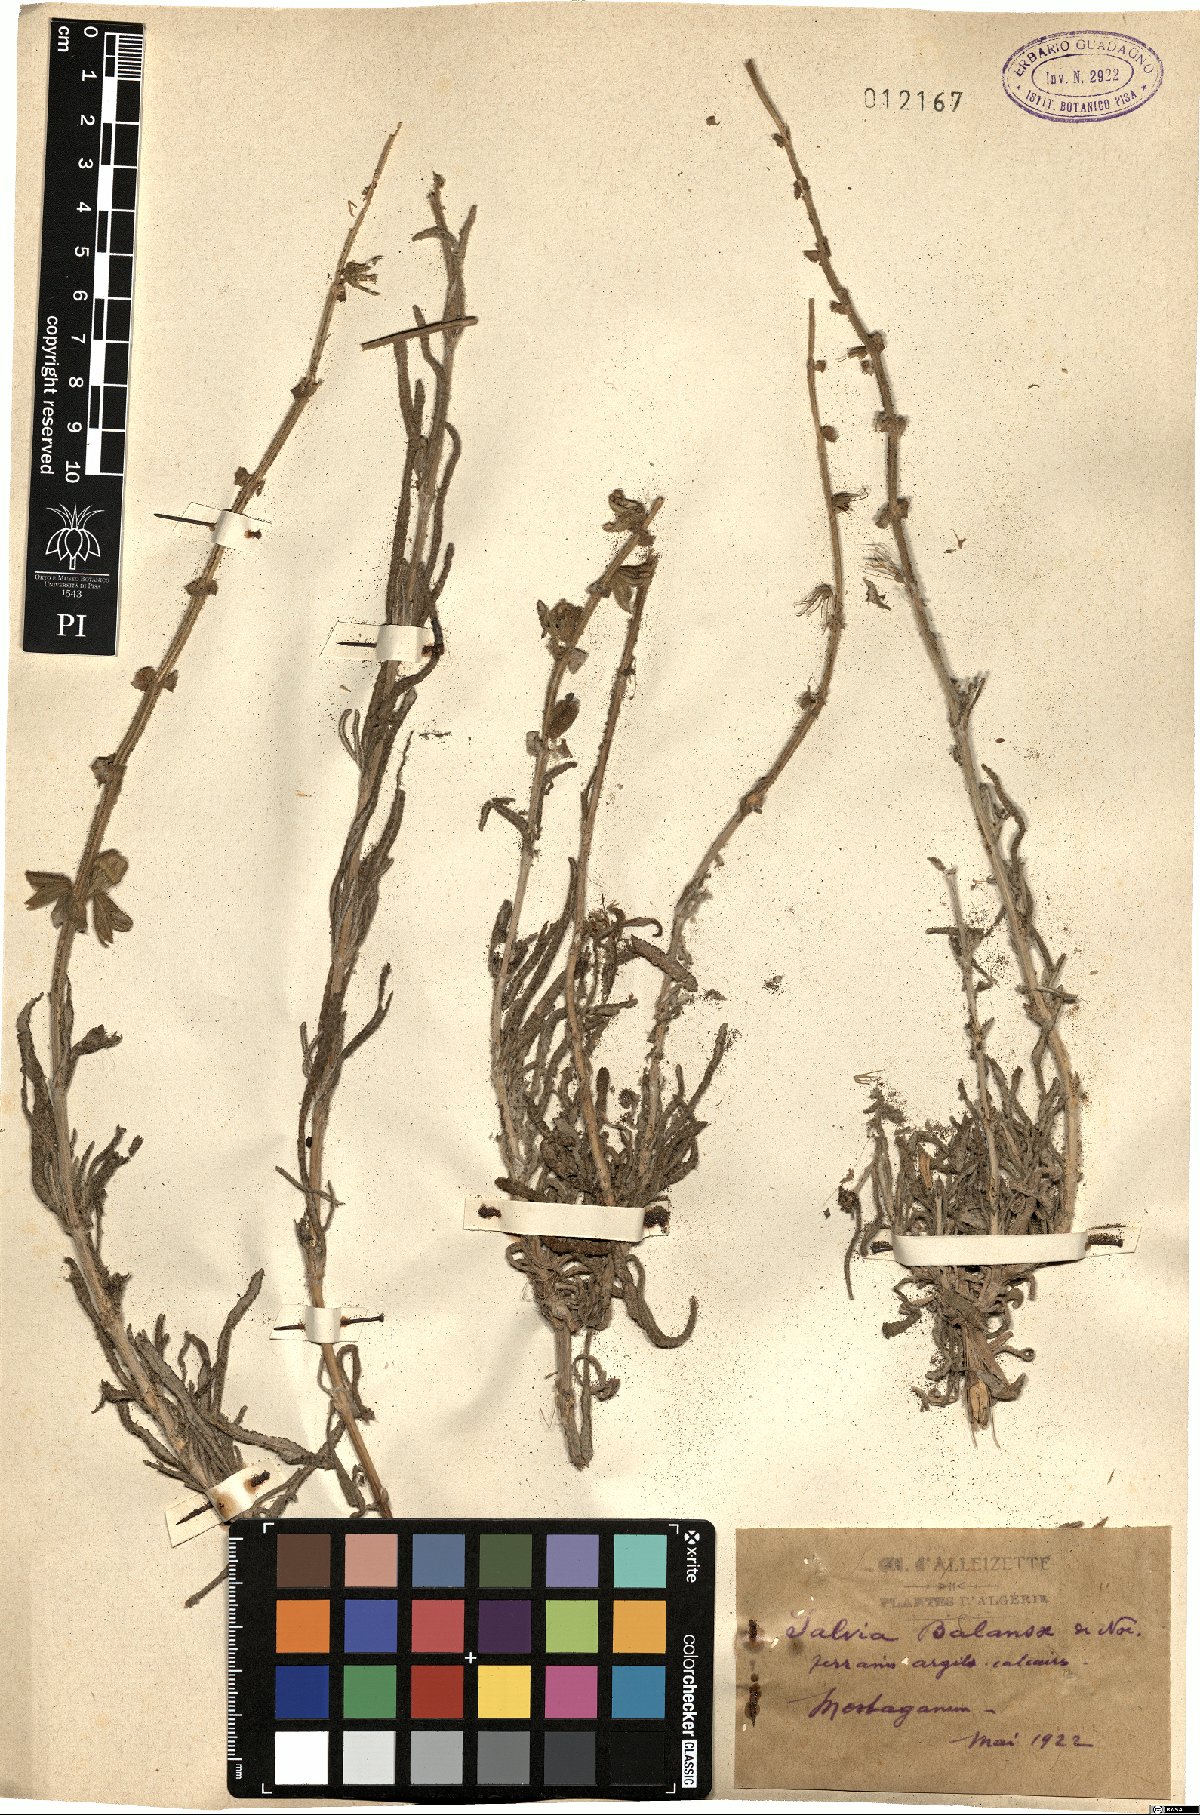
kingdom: Plantae
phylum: Tracheophyta
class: Magnoliopsida
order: Lamiales
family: Lamiaceae
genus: Salvia
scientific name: Salvia balansae
